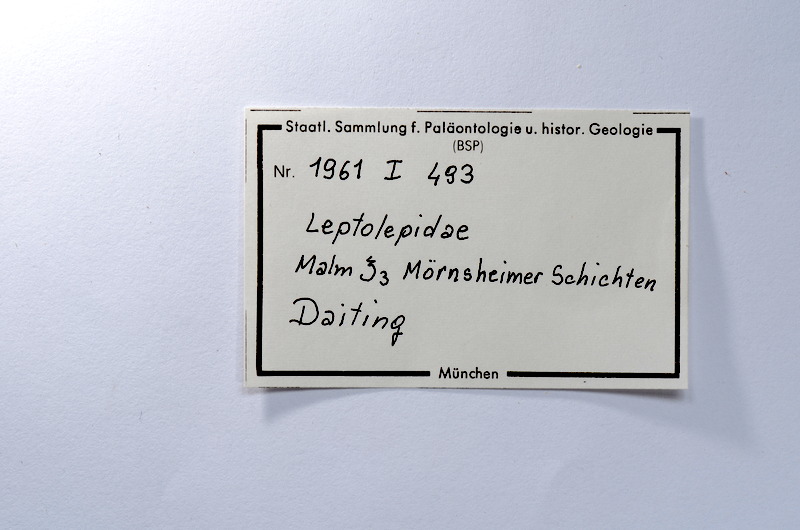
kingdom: Animalia
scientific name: Animalia
